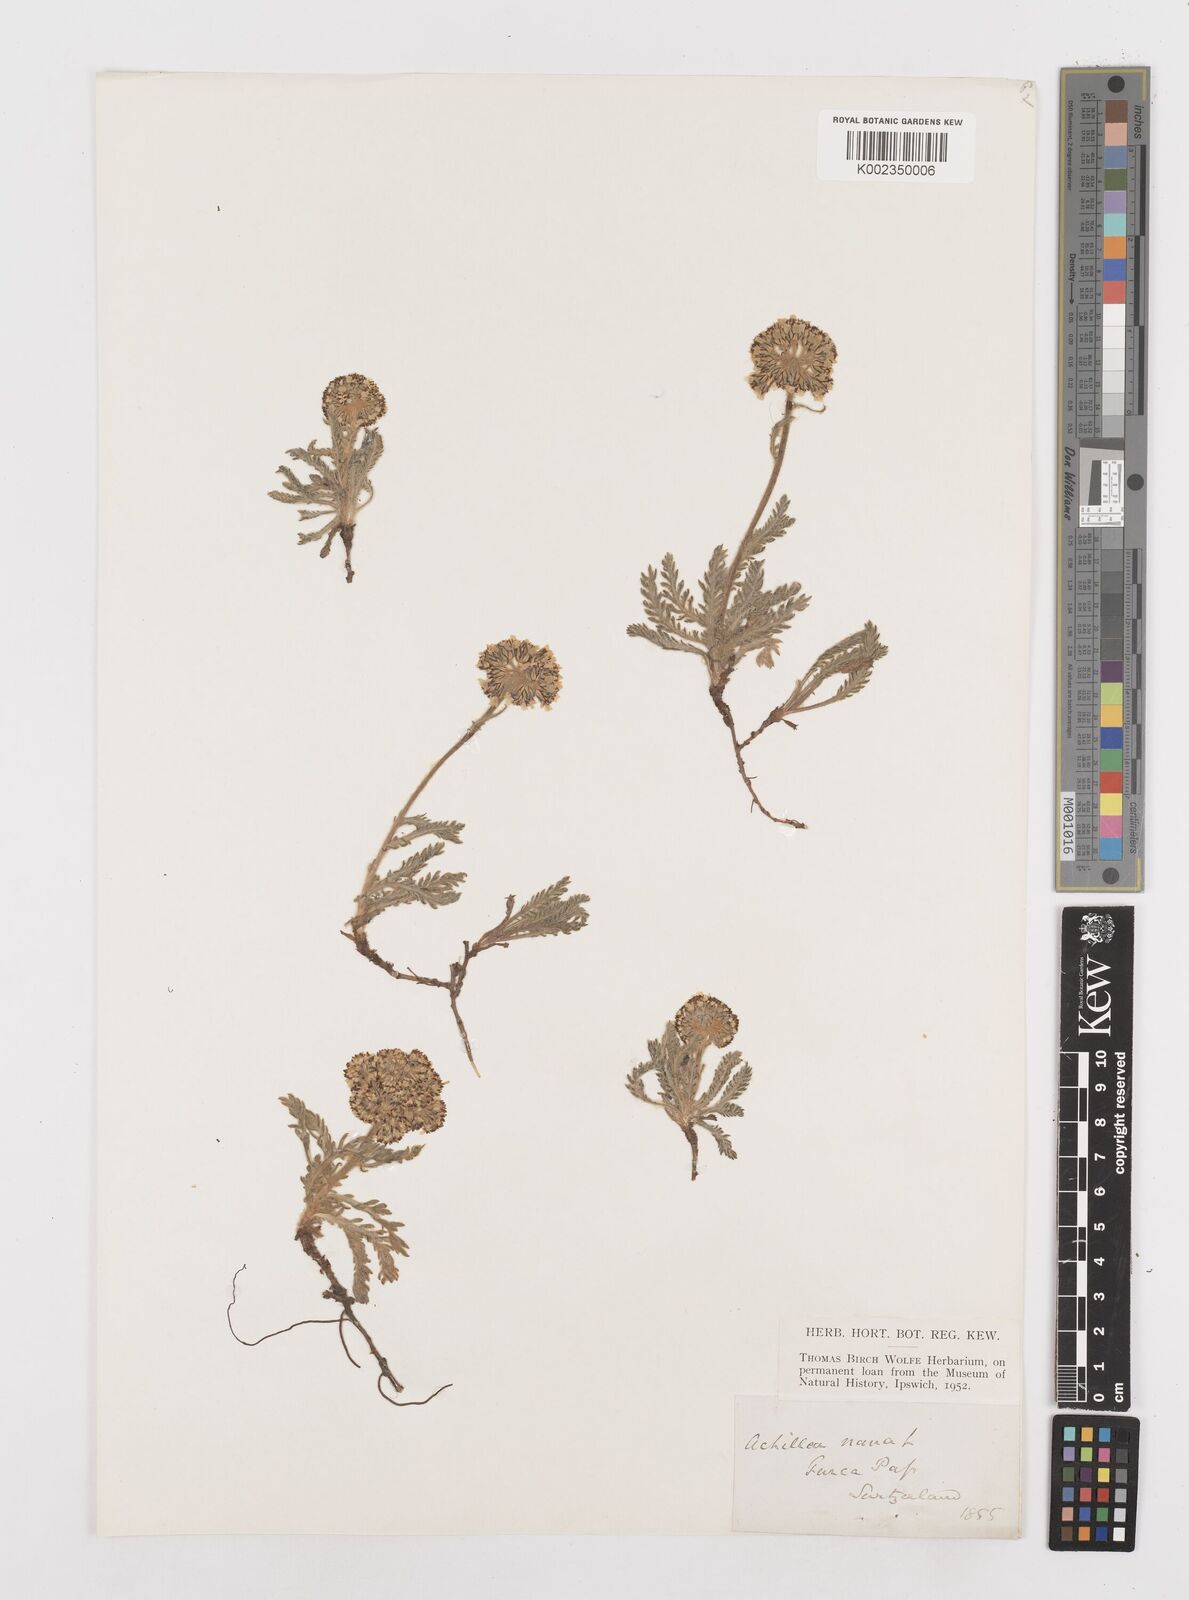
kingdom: Plantae
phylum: Tracheophyta
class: Magnoliopsida
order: Asterales
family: Asteraceae
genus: Achillea
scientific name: Achillea nana
